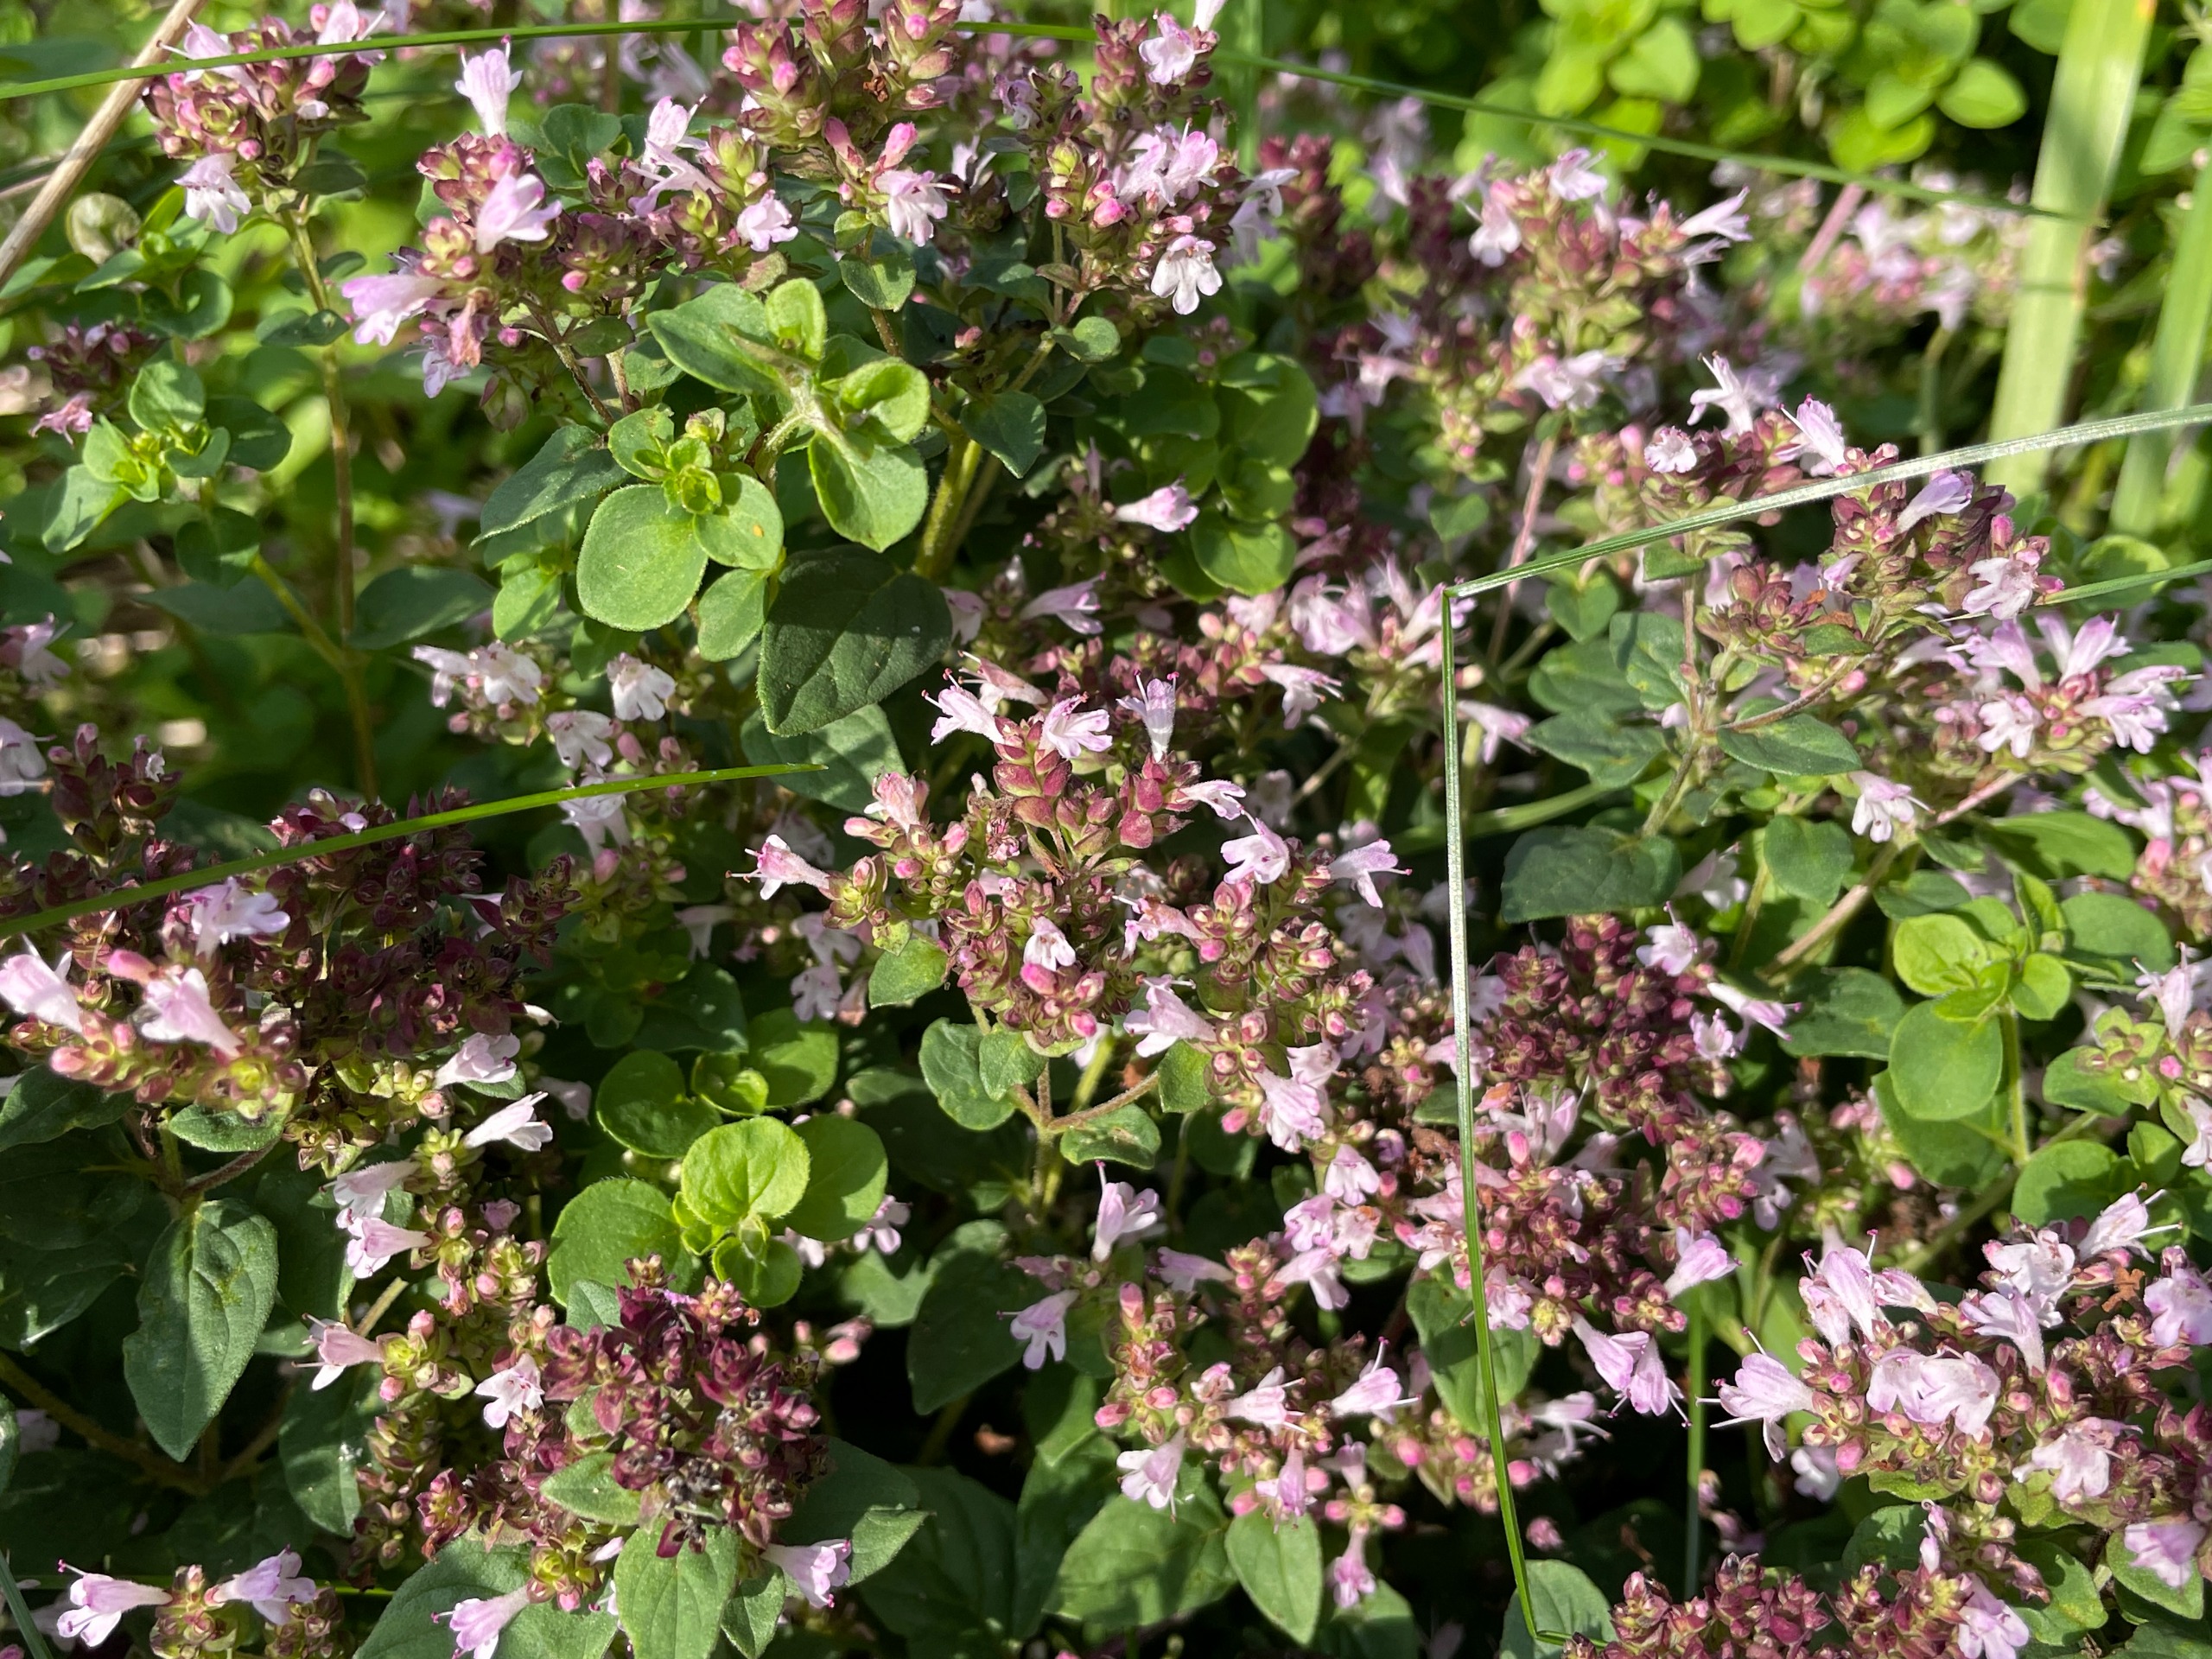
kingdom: Plantae
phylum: Tracheophyta
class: Magnoliopsida
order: Lamiales
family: Lamiaceae
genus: Origanum
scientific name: Origanum vulgare
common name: Merian
